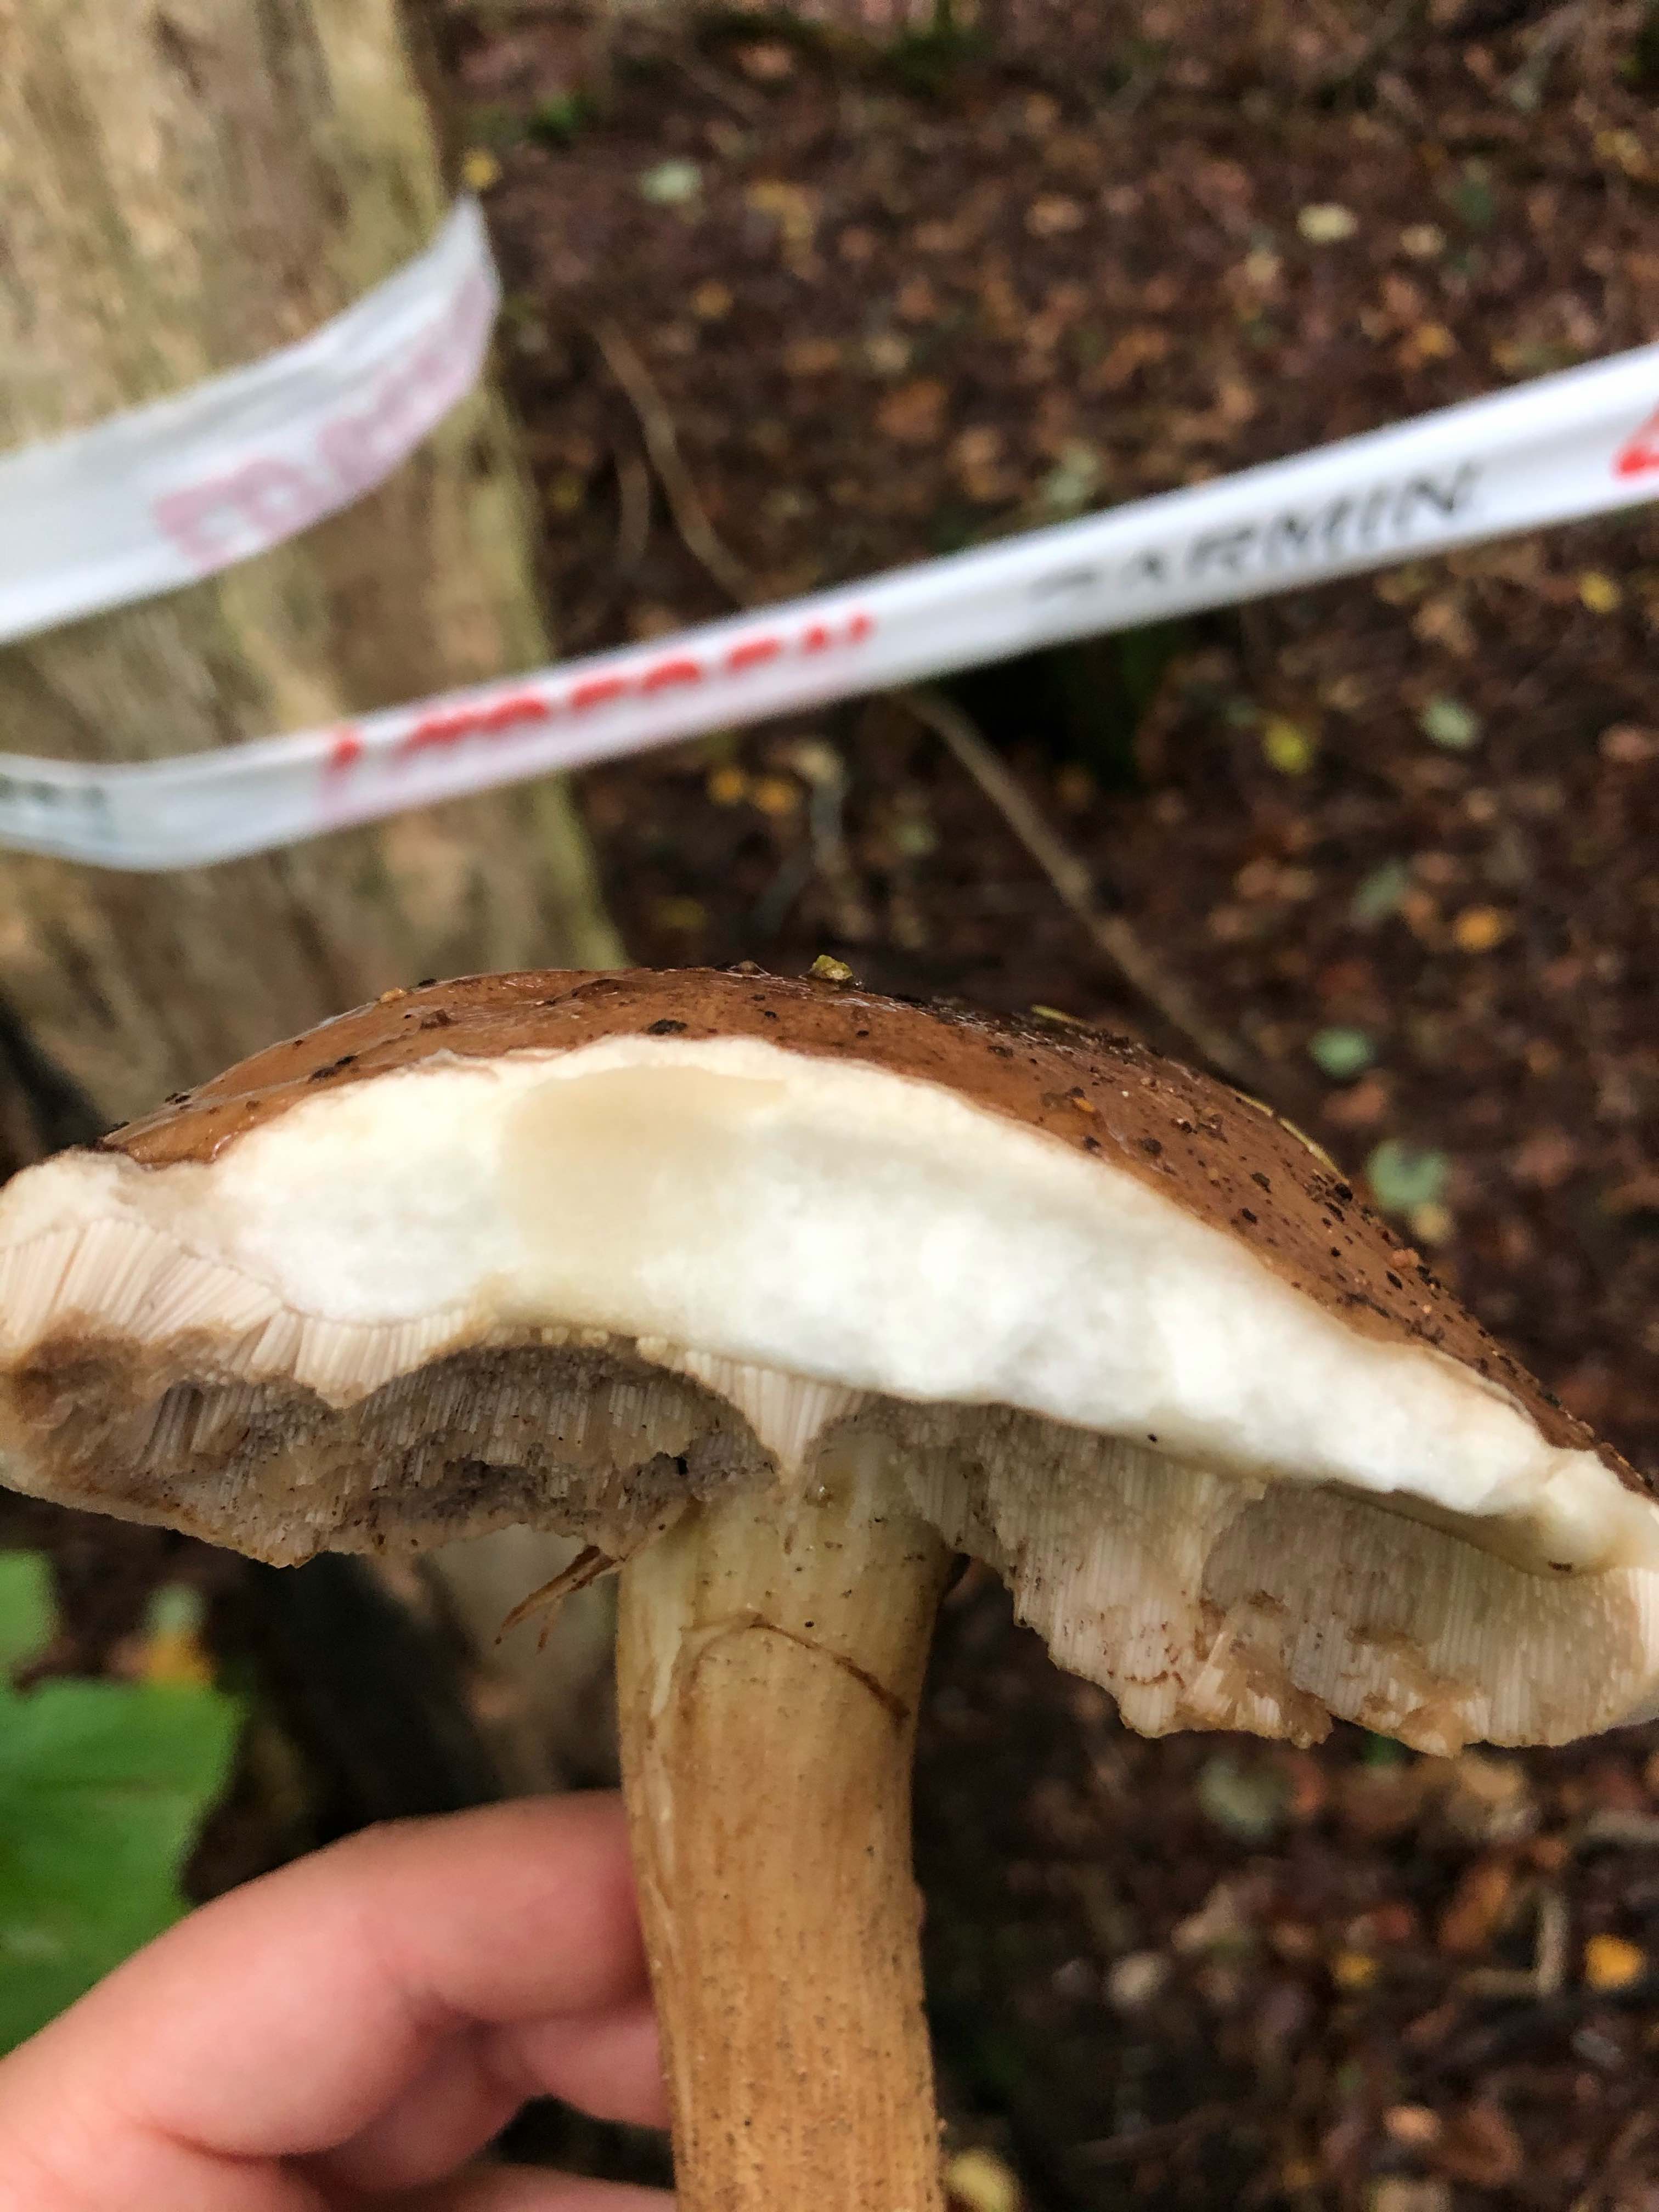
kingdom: Fungi
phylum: Basidiomycota
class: Agaricomycetes
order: Boletales
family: Boletaceae
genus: Leccinum
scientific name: Leccinum
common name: skælrørhat
